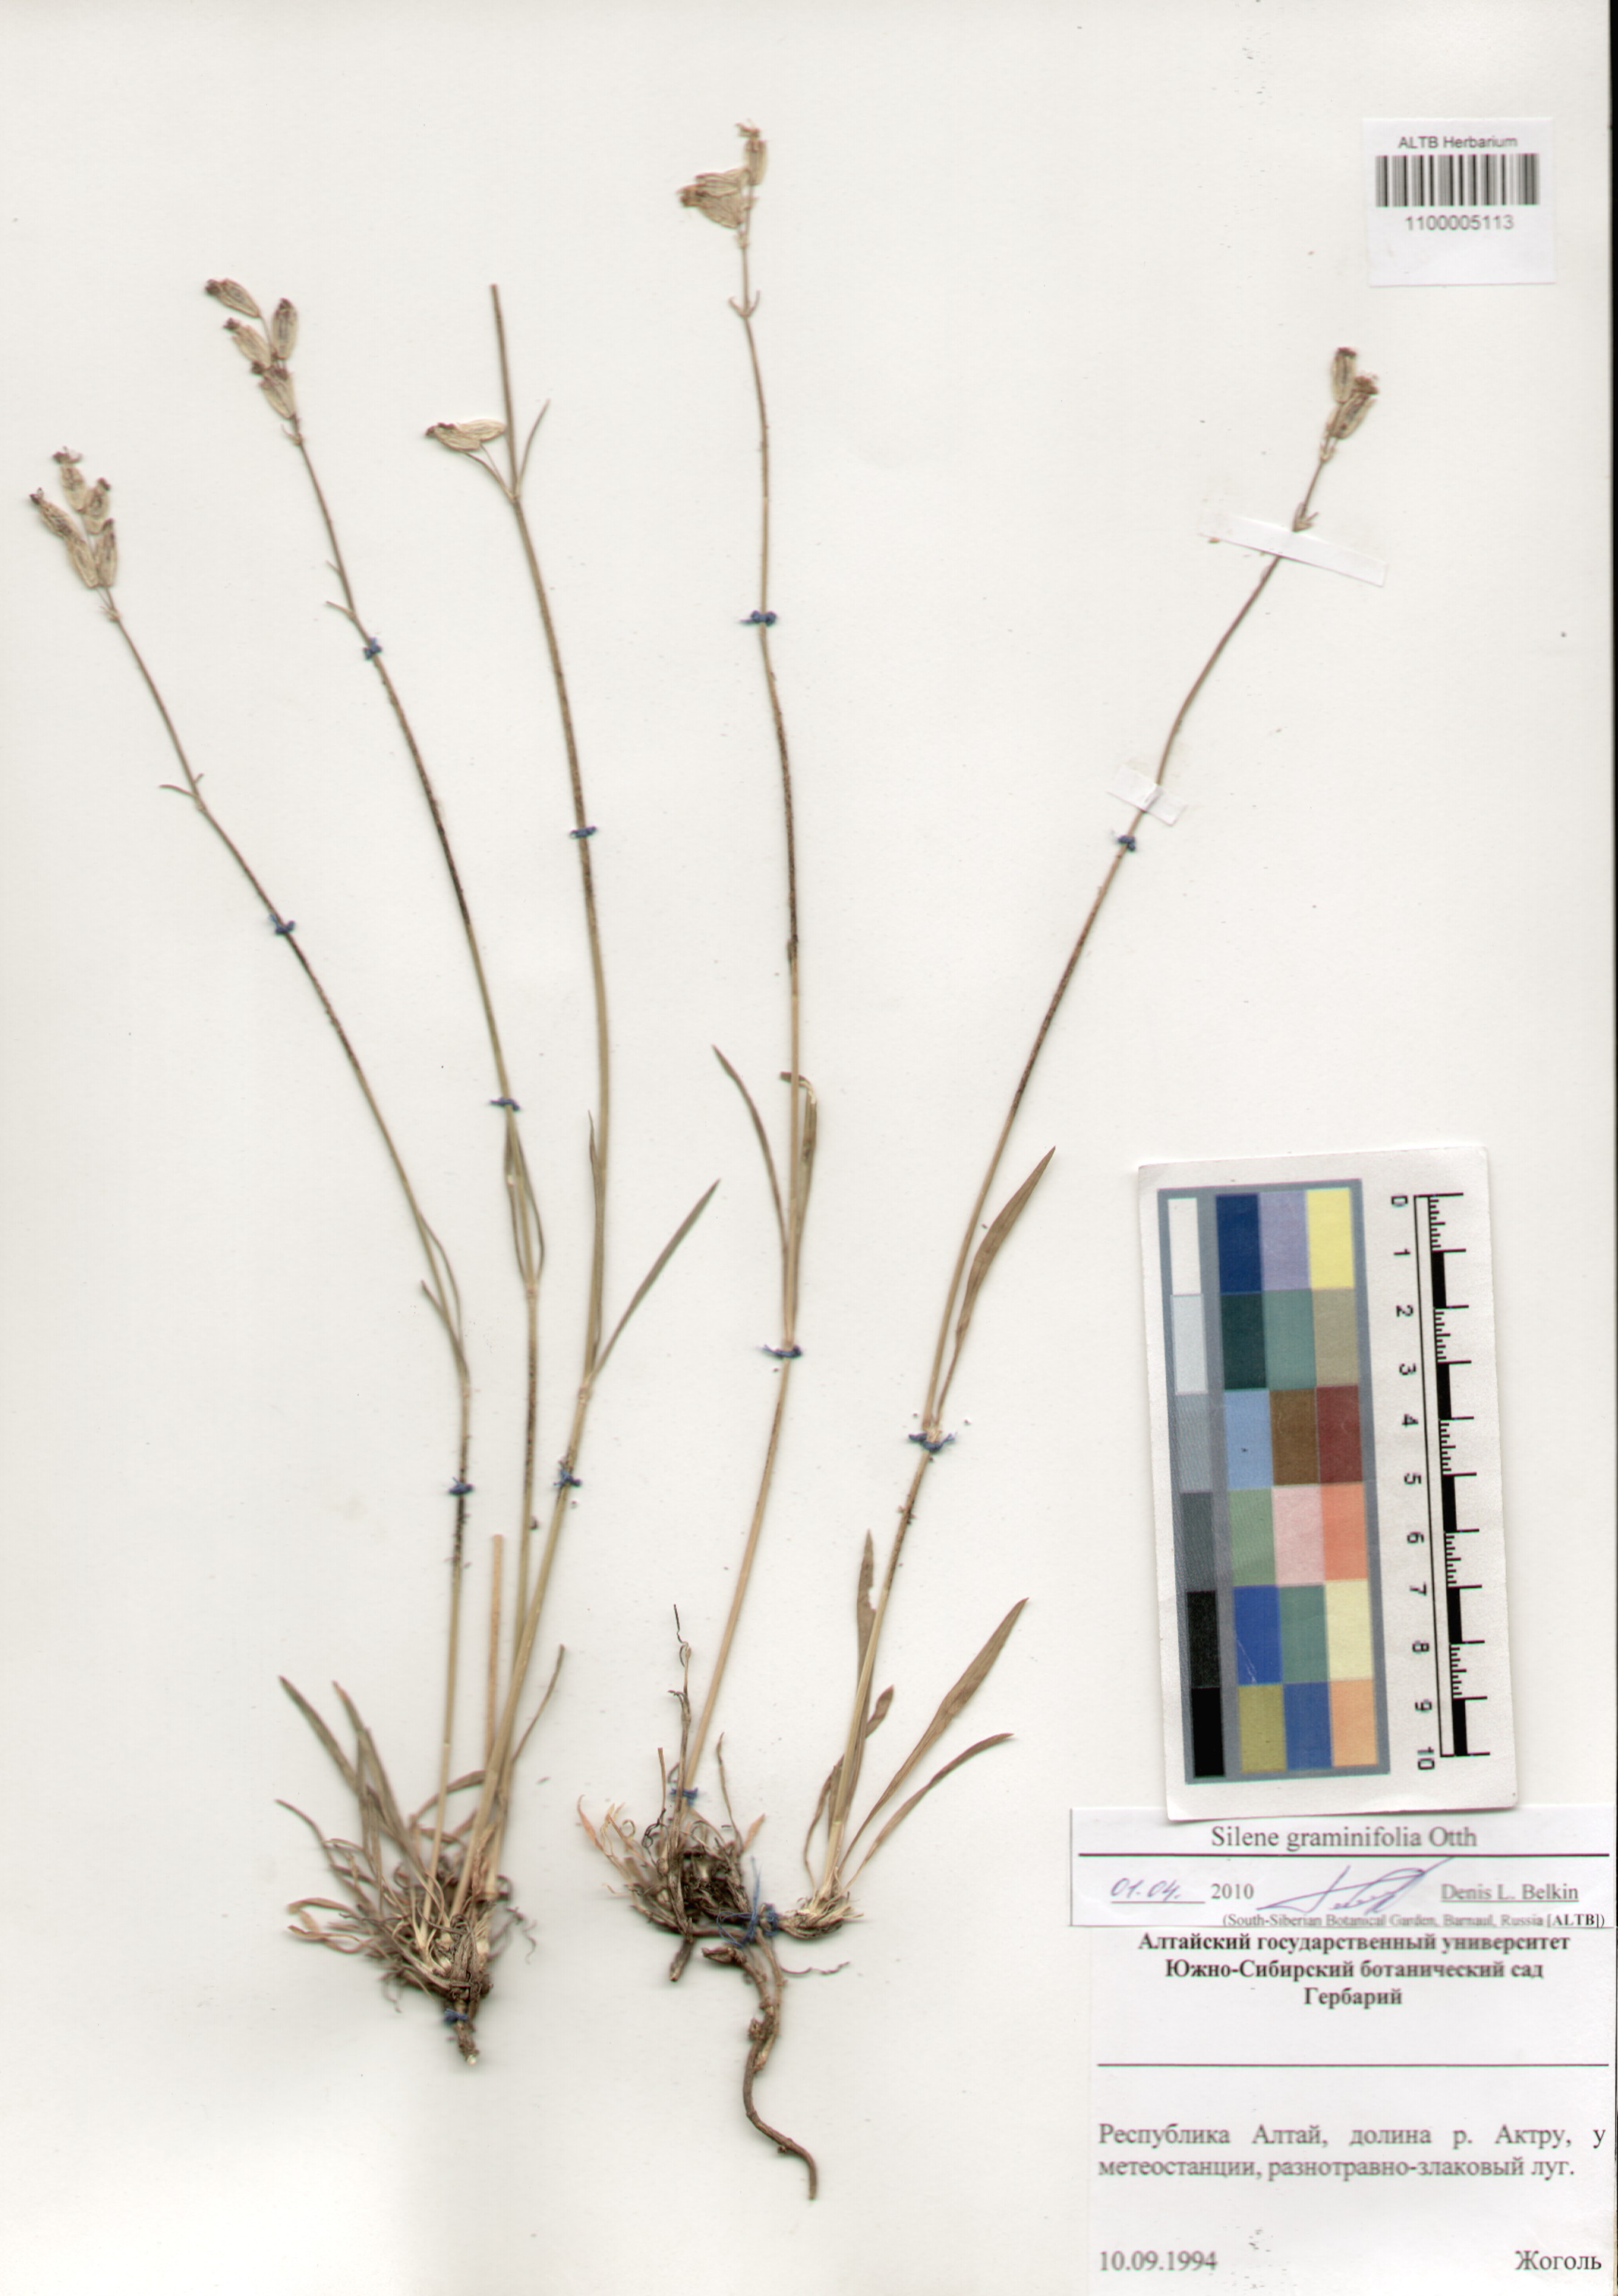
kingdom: Plantae
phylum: Tracheophyta
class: Magnoliopsida
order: Caryophyllales
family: Caryophyllaceae
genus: Silene
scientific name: Silene graminifolia
